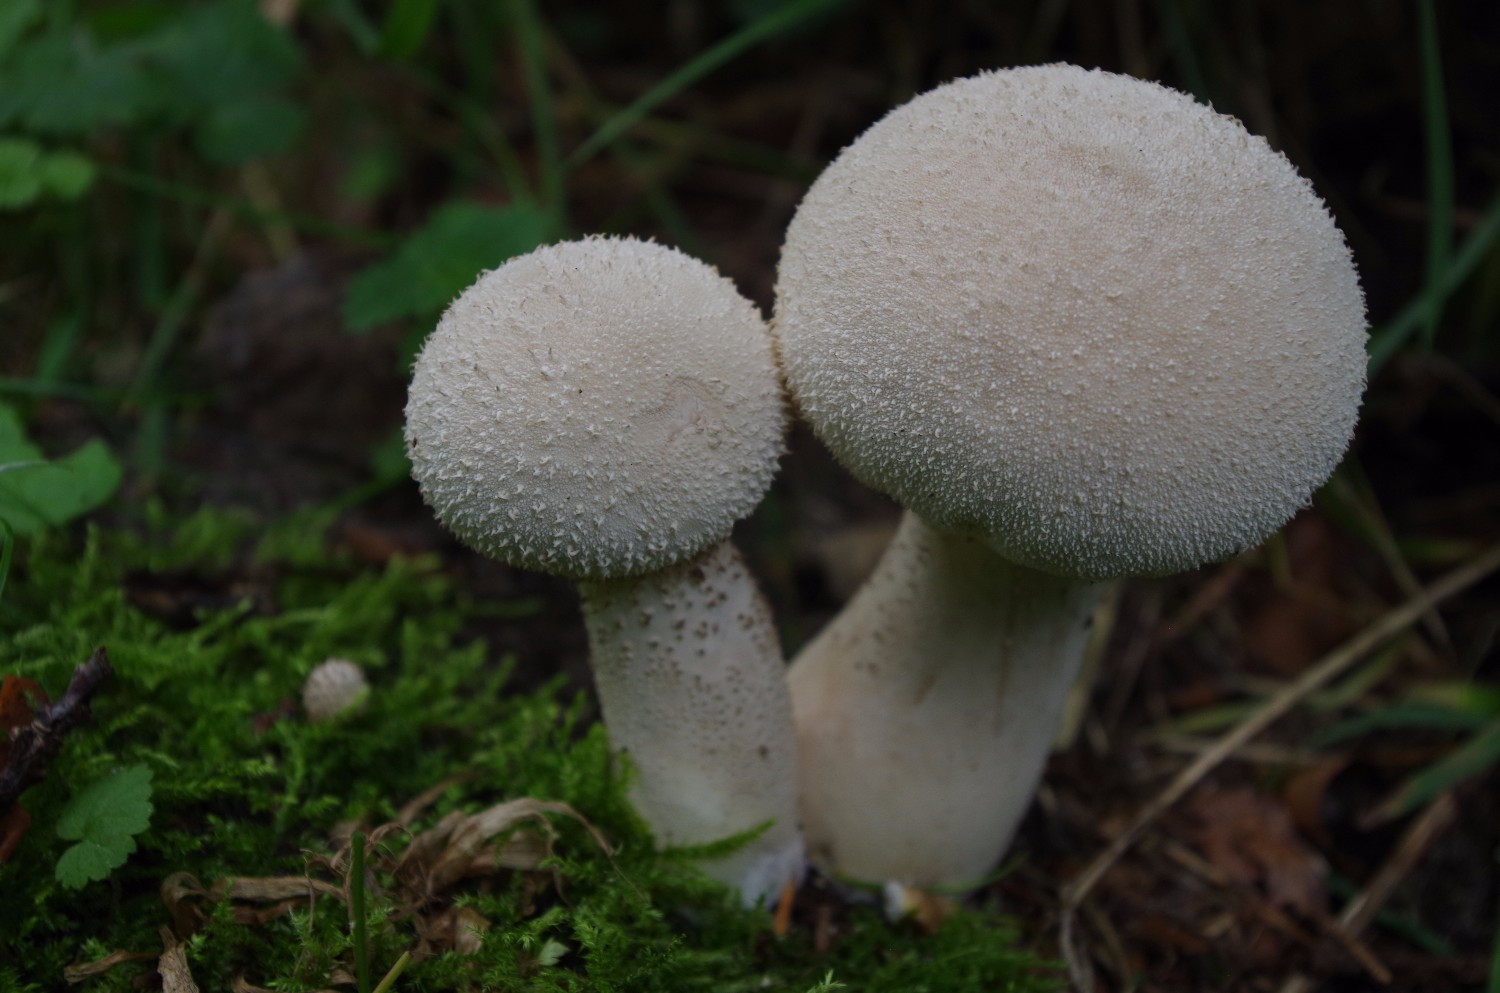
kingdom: Fungi
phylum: Basidiomycota
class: Agaricomycetes
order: Agaricales
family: Lycoperdaceae
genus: Lycoperdon
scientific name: Lycoperdon excipuliforme
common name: højstokket støvbold
